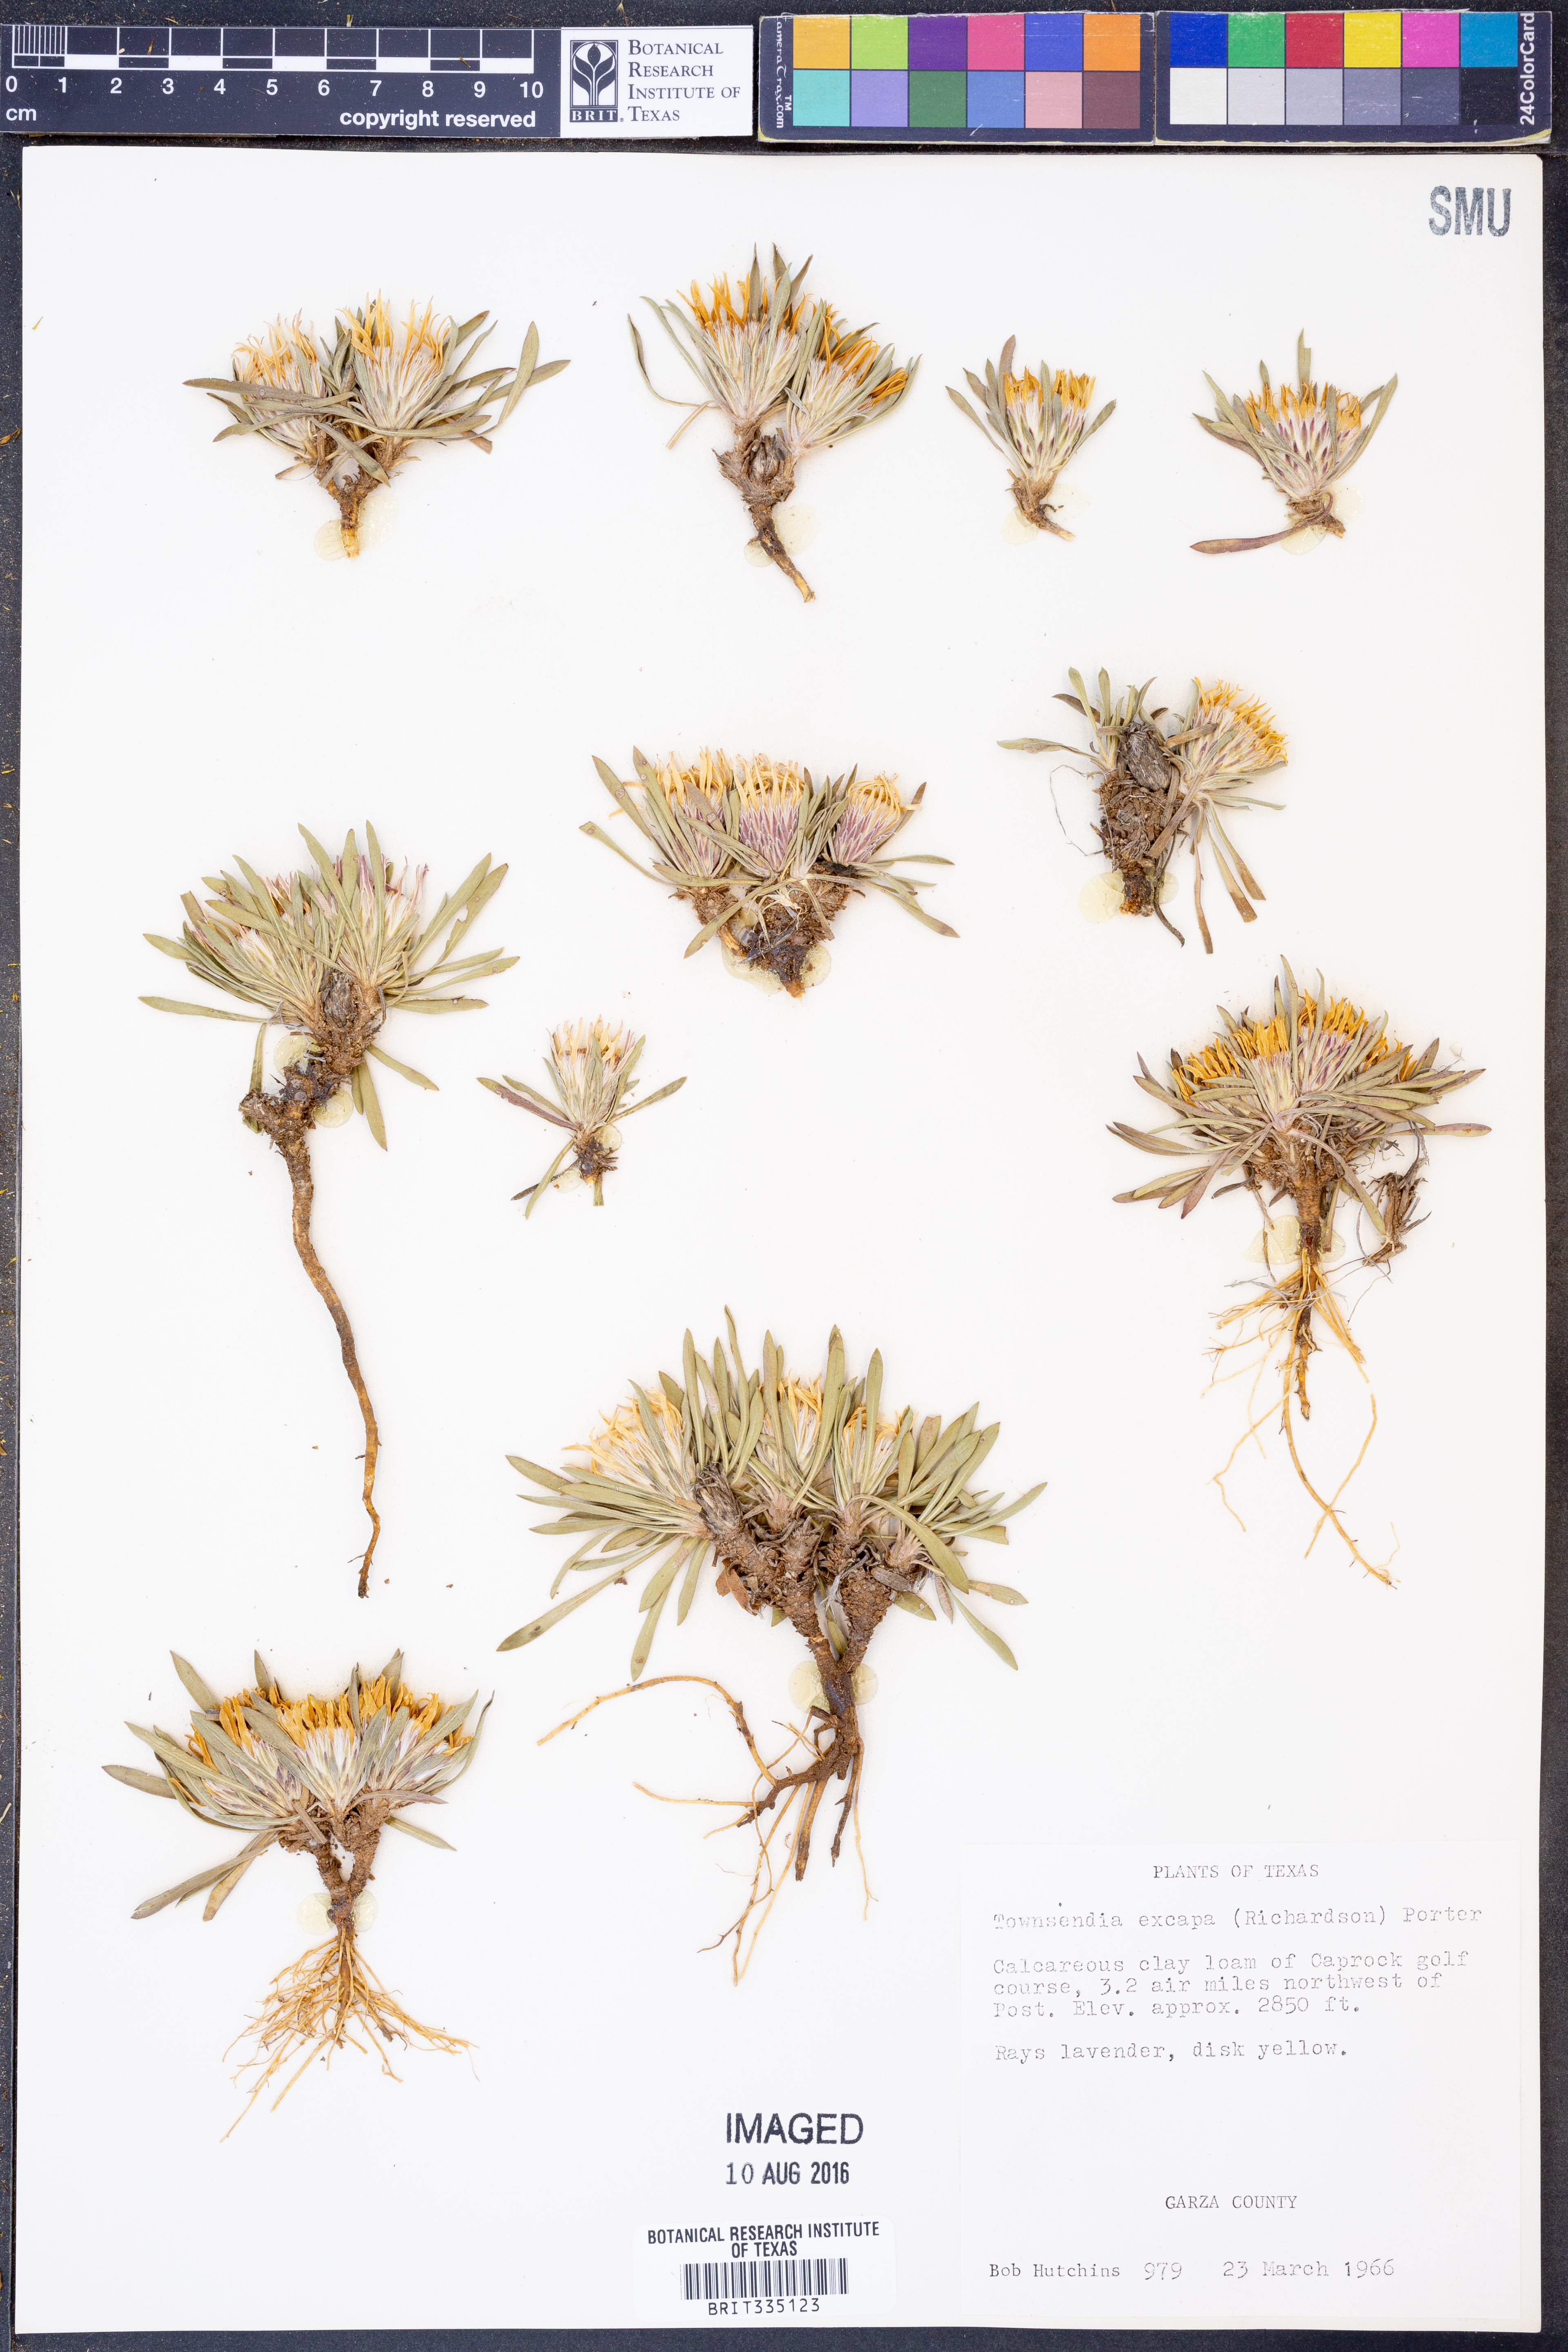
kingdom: Plantae
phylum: Tracheophyta
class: Magnoliopsida
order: Asterales
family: Asteraceae
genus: Townsendia
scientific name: Townsendia exscapa
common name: Dwarf townsendia
